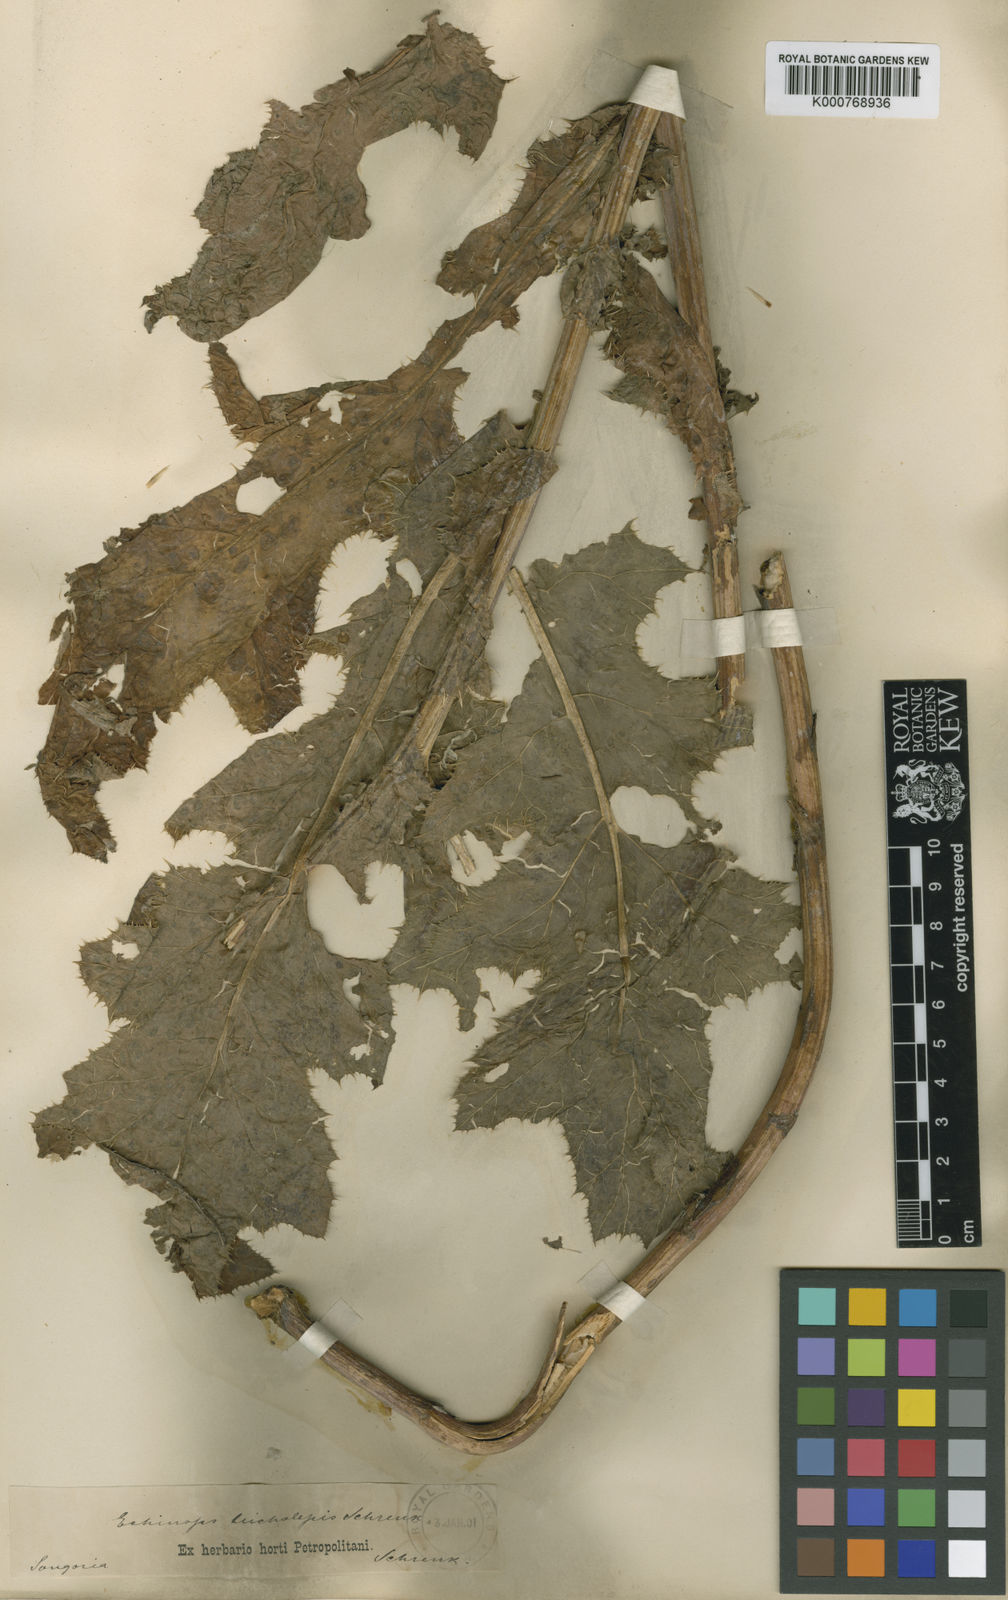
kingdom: Plantae
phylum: Tracheophyta
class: Magnoliopsida
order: Asterales
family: Asteraceae
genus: Echinops
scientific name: Echinops davuricus
